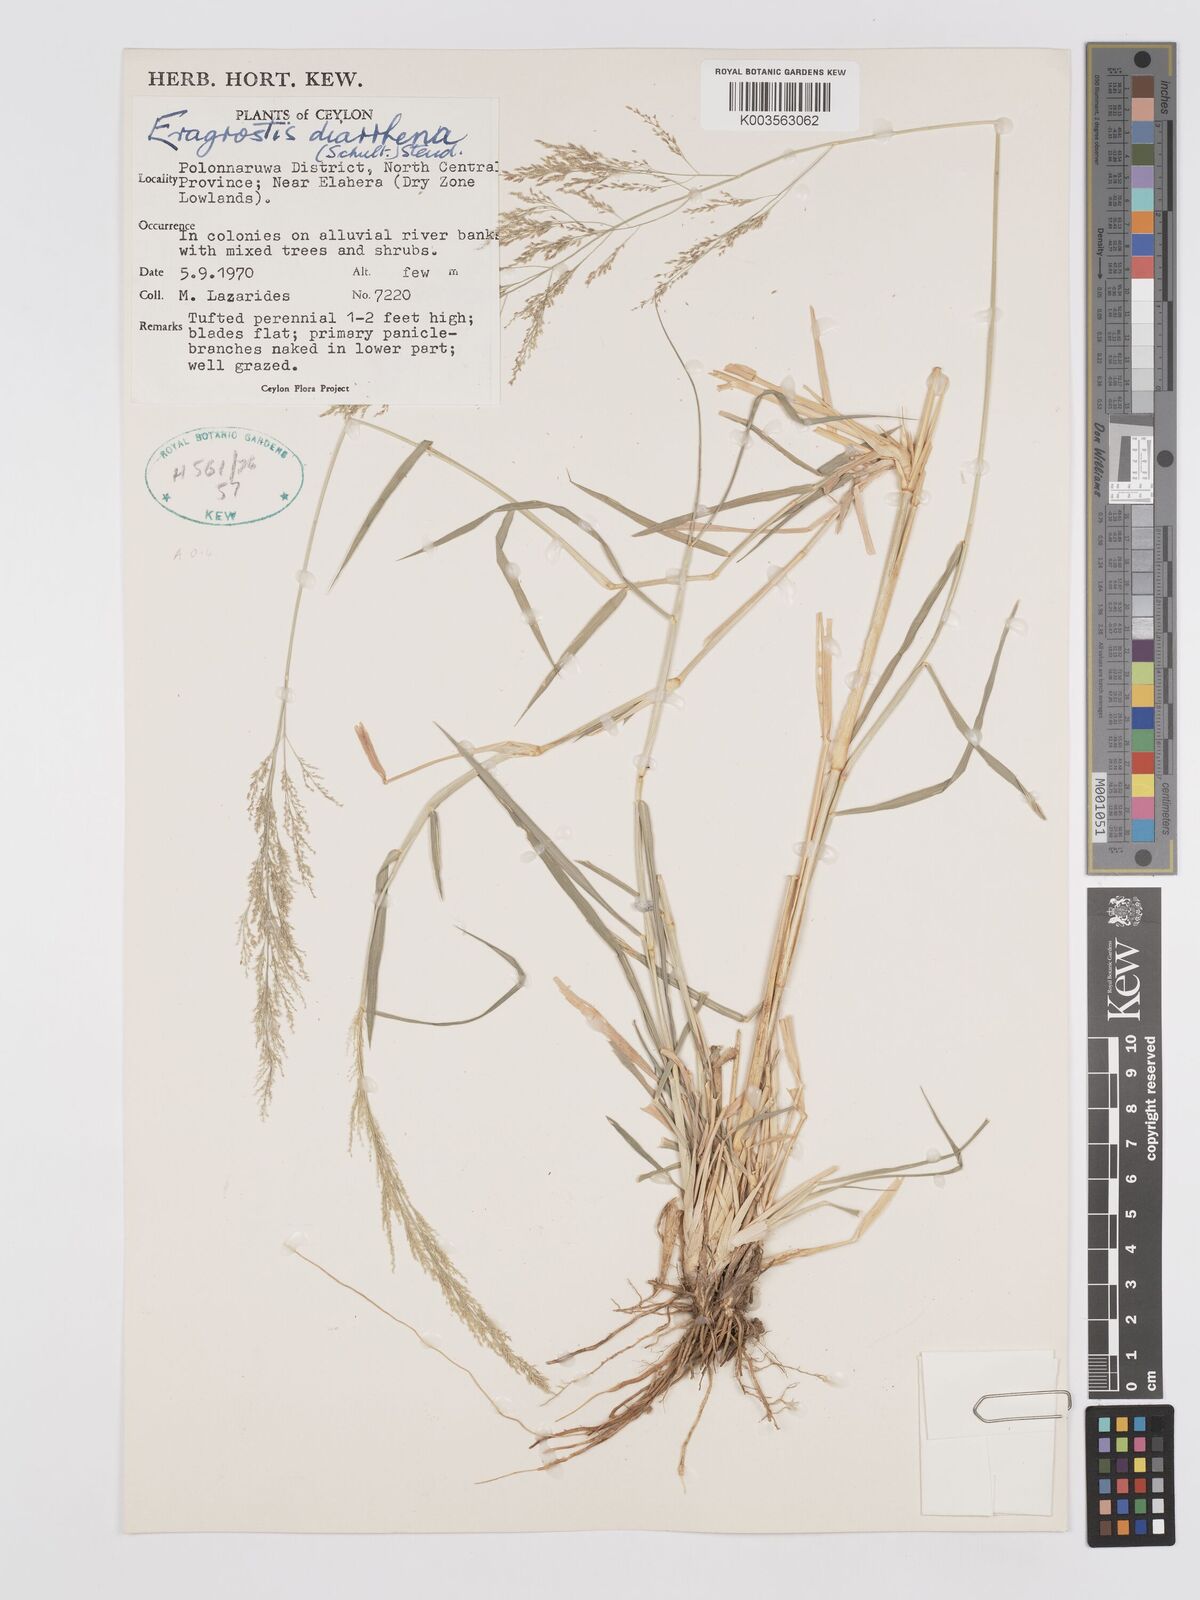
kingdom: Plantae
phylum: Tracheophyta
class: Liliopsida
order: Poales
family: Poaceae
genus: Eragrostis
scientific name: Eragrostis japonica
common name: Pond lovegrass
